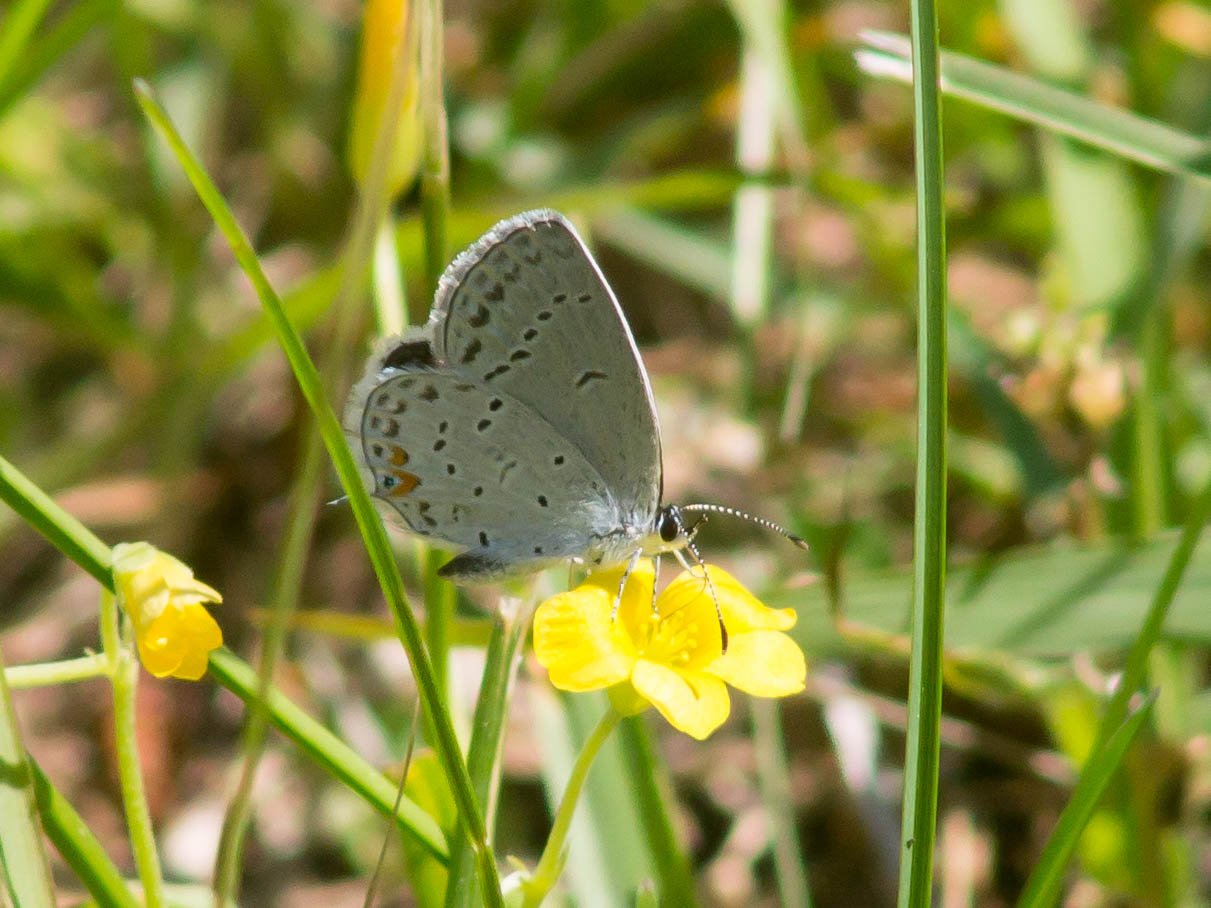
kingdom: Animalia
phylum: Arthropoda
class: Insecta
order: Lepidoptera
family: Lycaenidae
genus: Elkalyce
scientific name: Elkalyce comyntas
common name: Eastern Tailed-Blue
